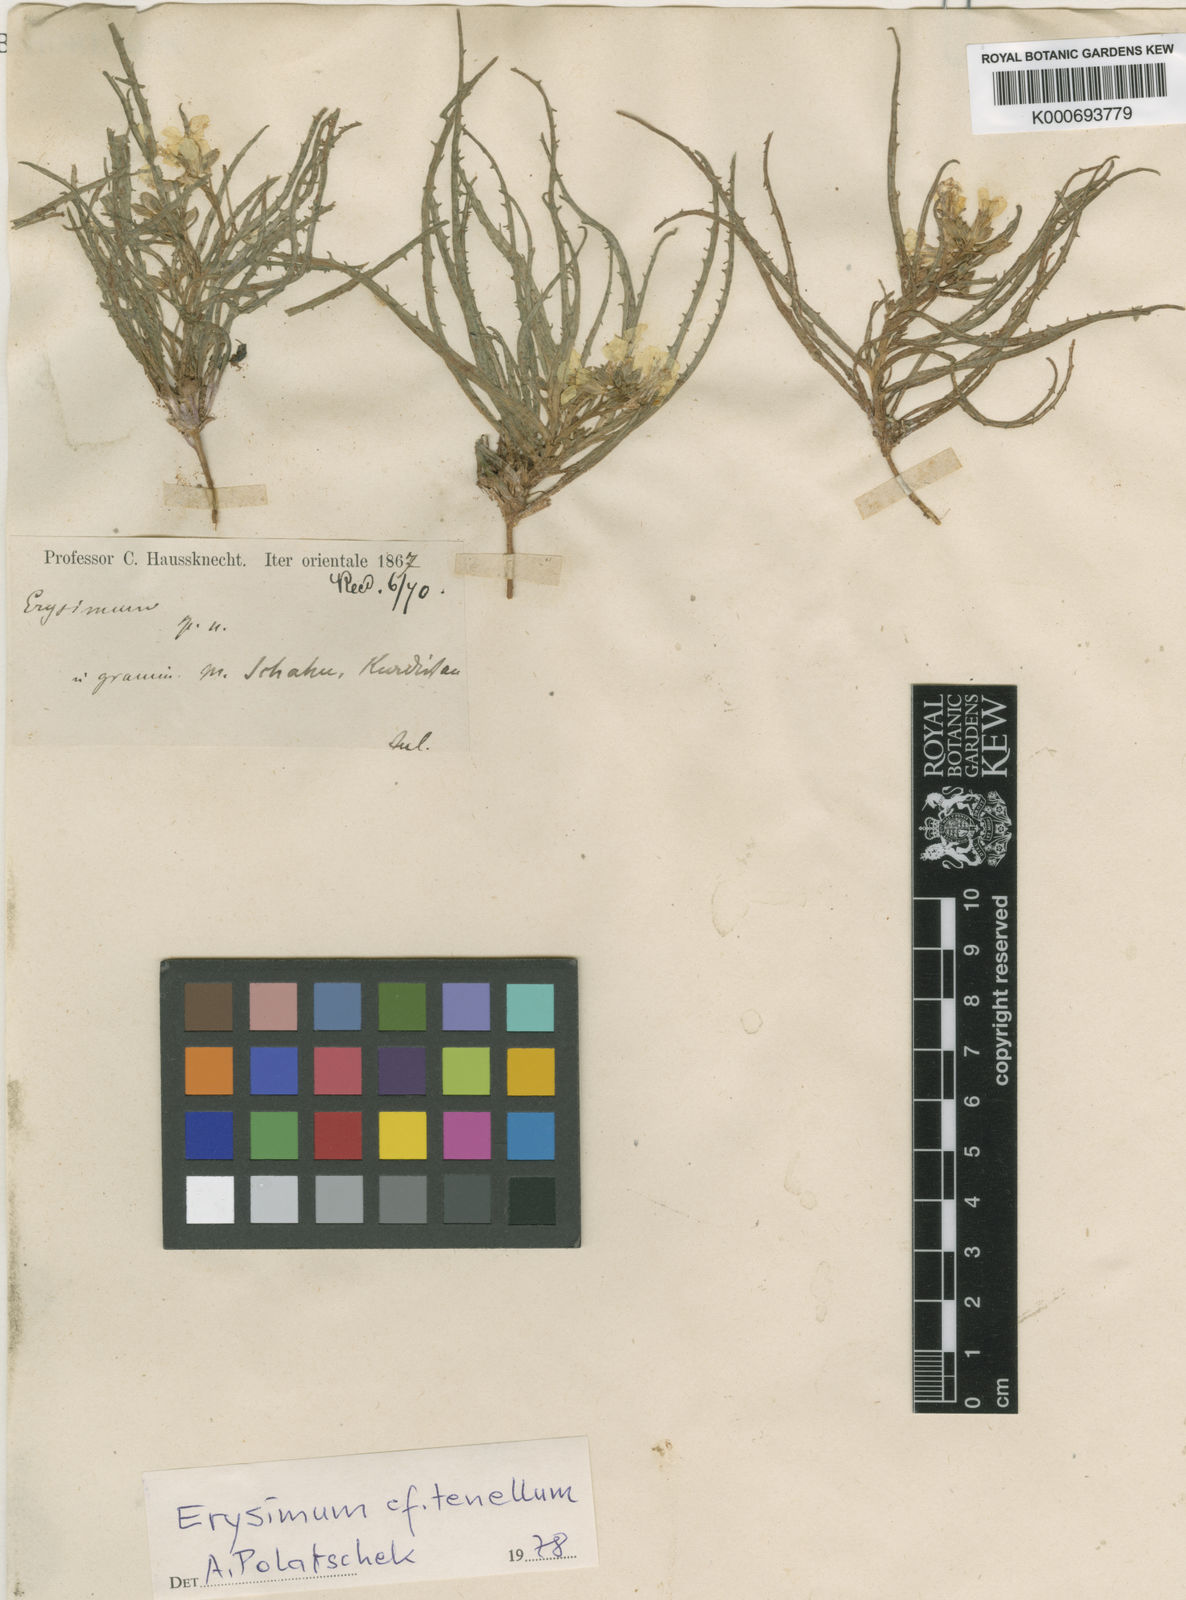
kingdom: Plantae
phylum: Tracheophyta
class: Magnoliopsida
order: Brassicales
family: Brassicaceae
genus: Erysimum
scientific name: Erysimum tenellum
